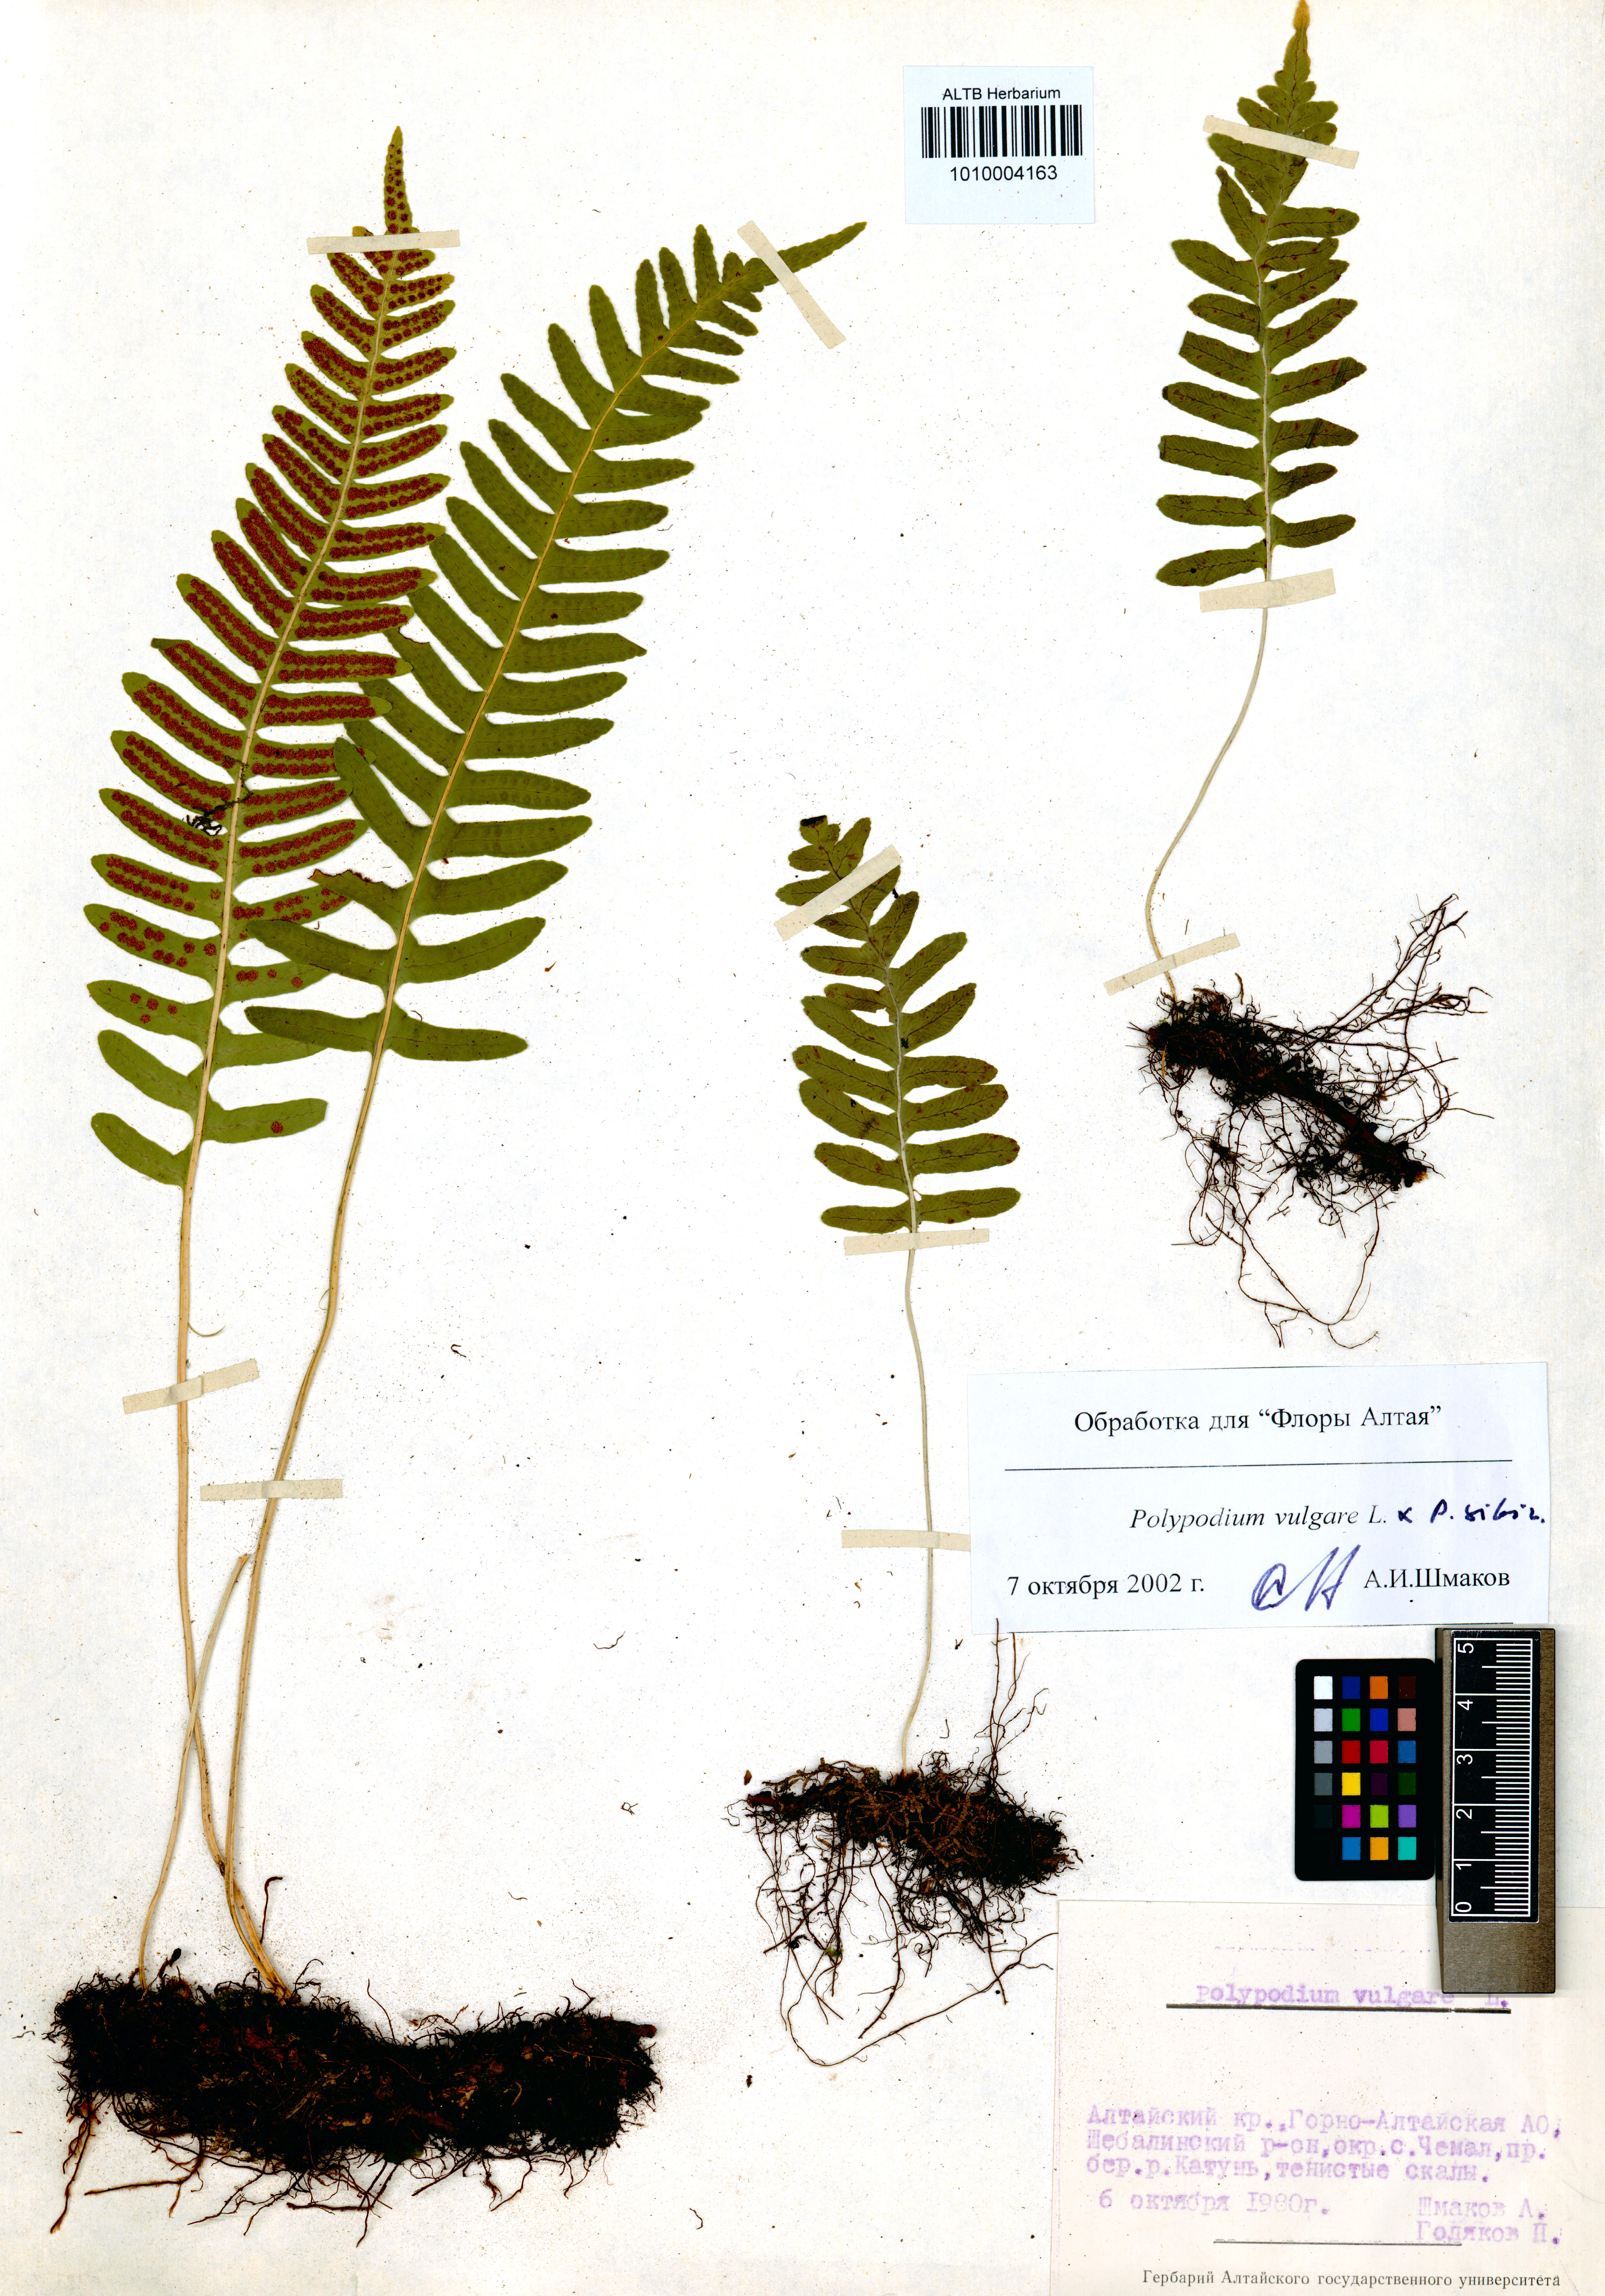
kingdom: Plantae
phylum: Tracheophyta
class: Polypodiopsida
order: Polypodiales
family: Polypodiaceae
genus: Polypodium
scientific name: Polypodium vulgare
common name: Common polypody
